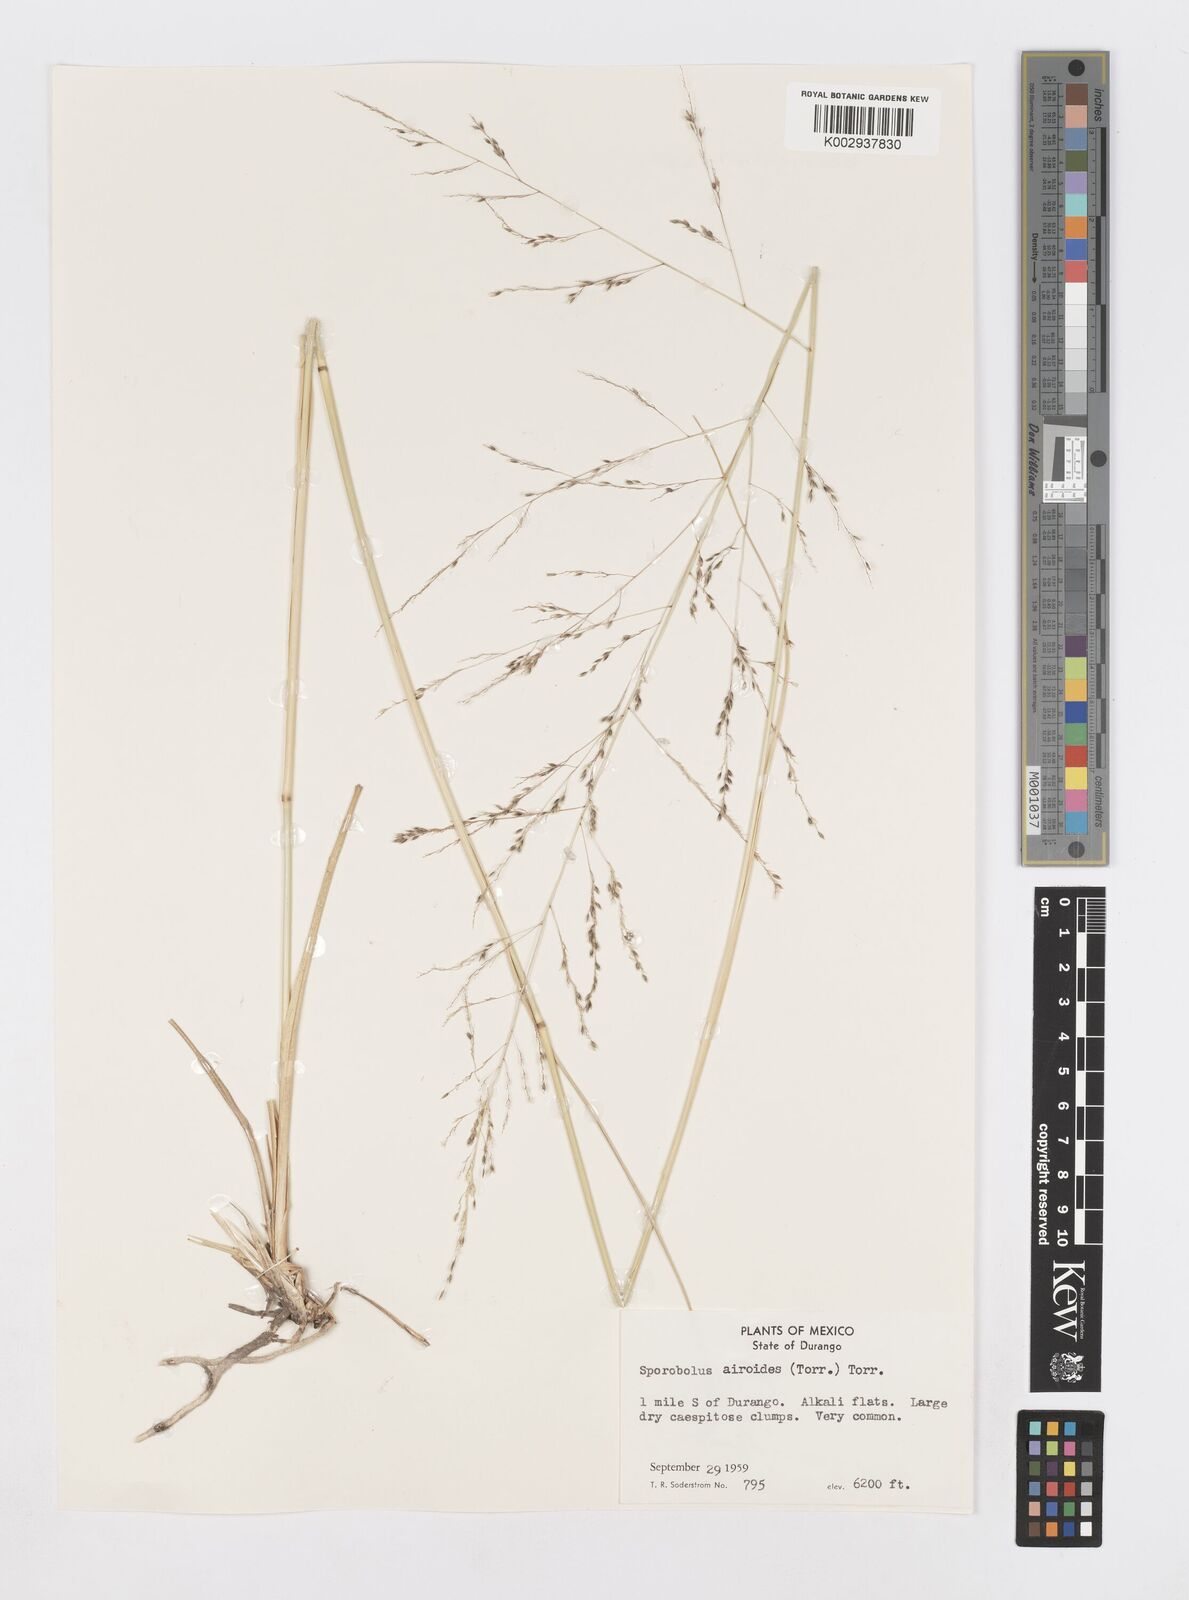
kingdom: Plantae
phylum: Tracheophyta
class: Liliopsida
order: Poales
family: Poaceae
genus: Sporobolus
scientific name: Sporobolus airoides
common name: Alkali sacaton
